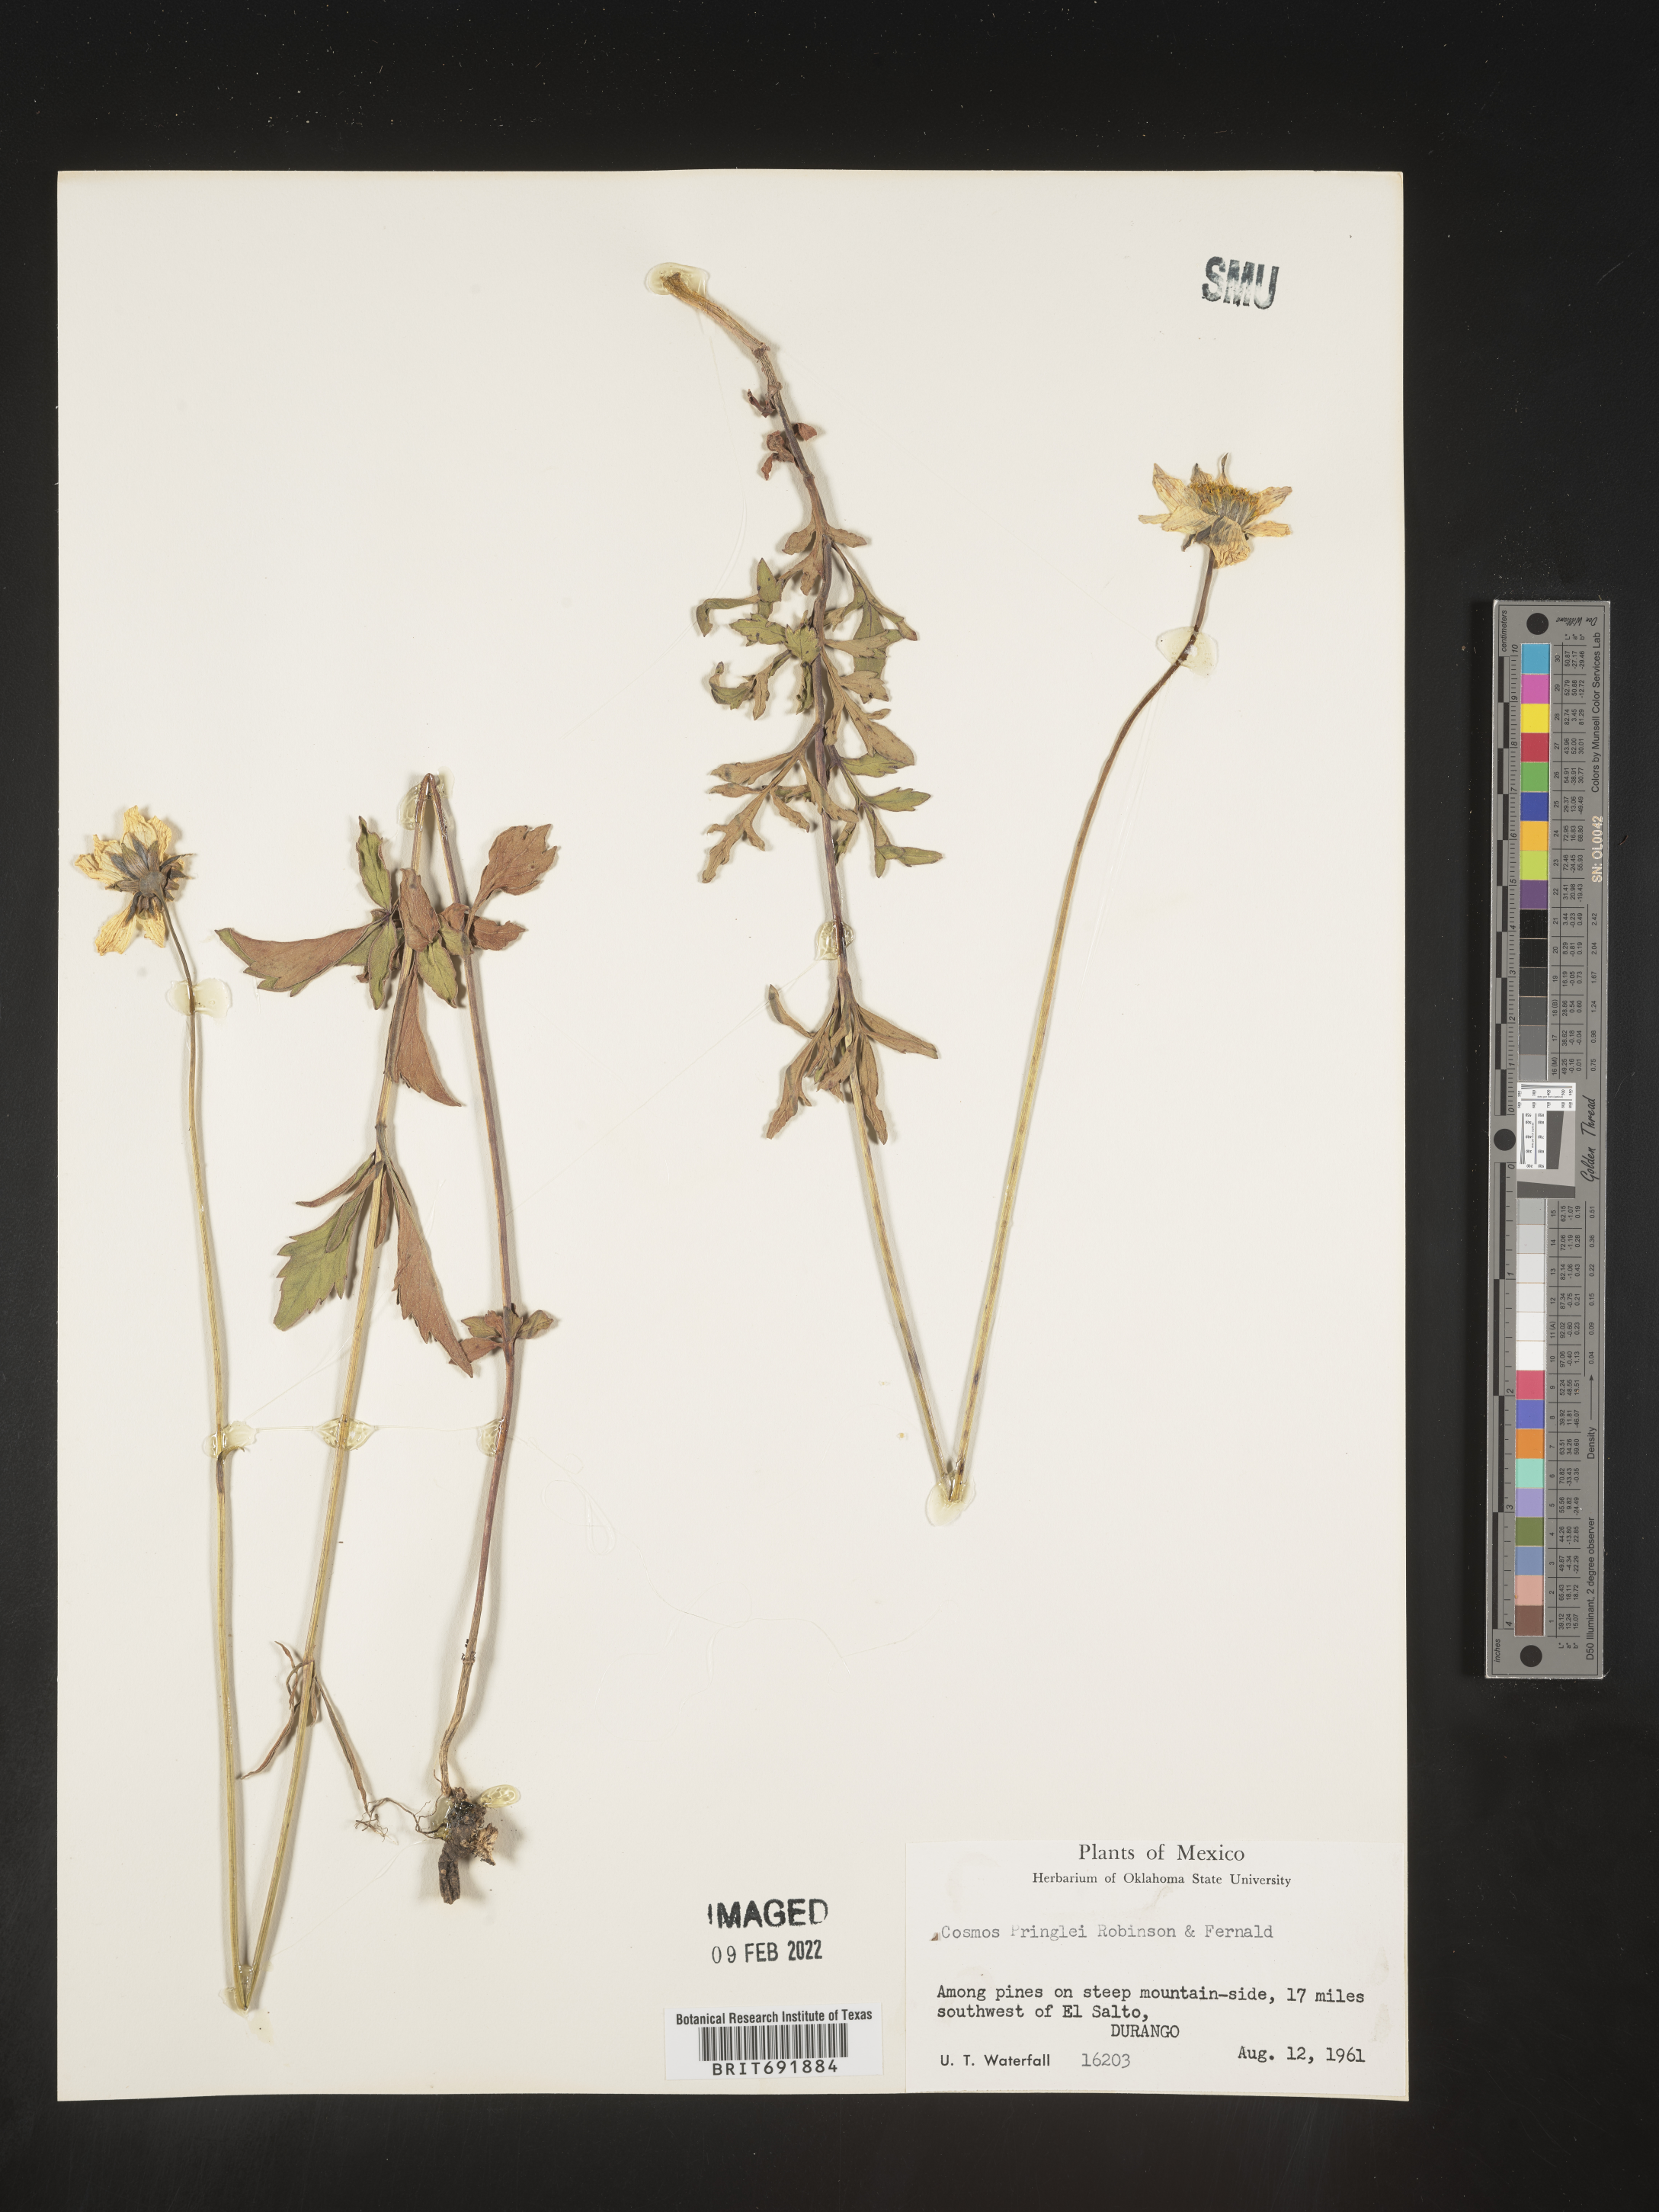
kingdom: Plantae
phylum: Tracheophyta
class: Magnoliopsida
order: Asterales
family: Asteraceae
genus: Cosmos
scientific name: Cosmos
